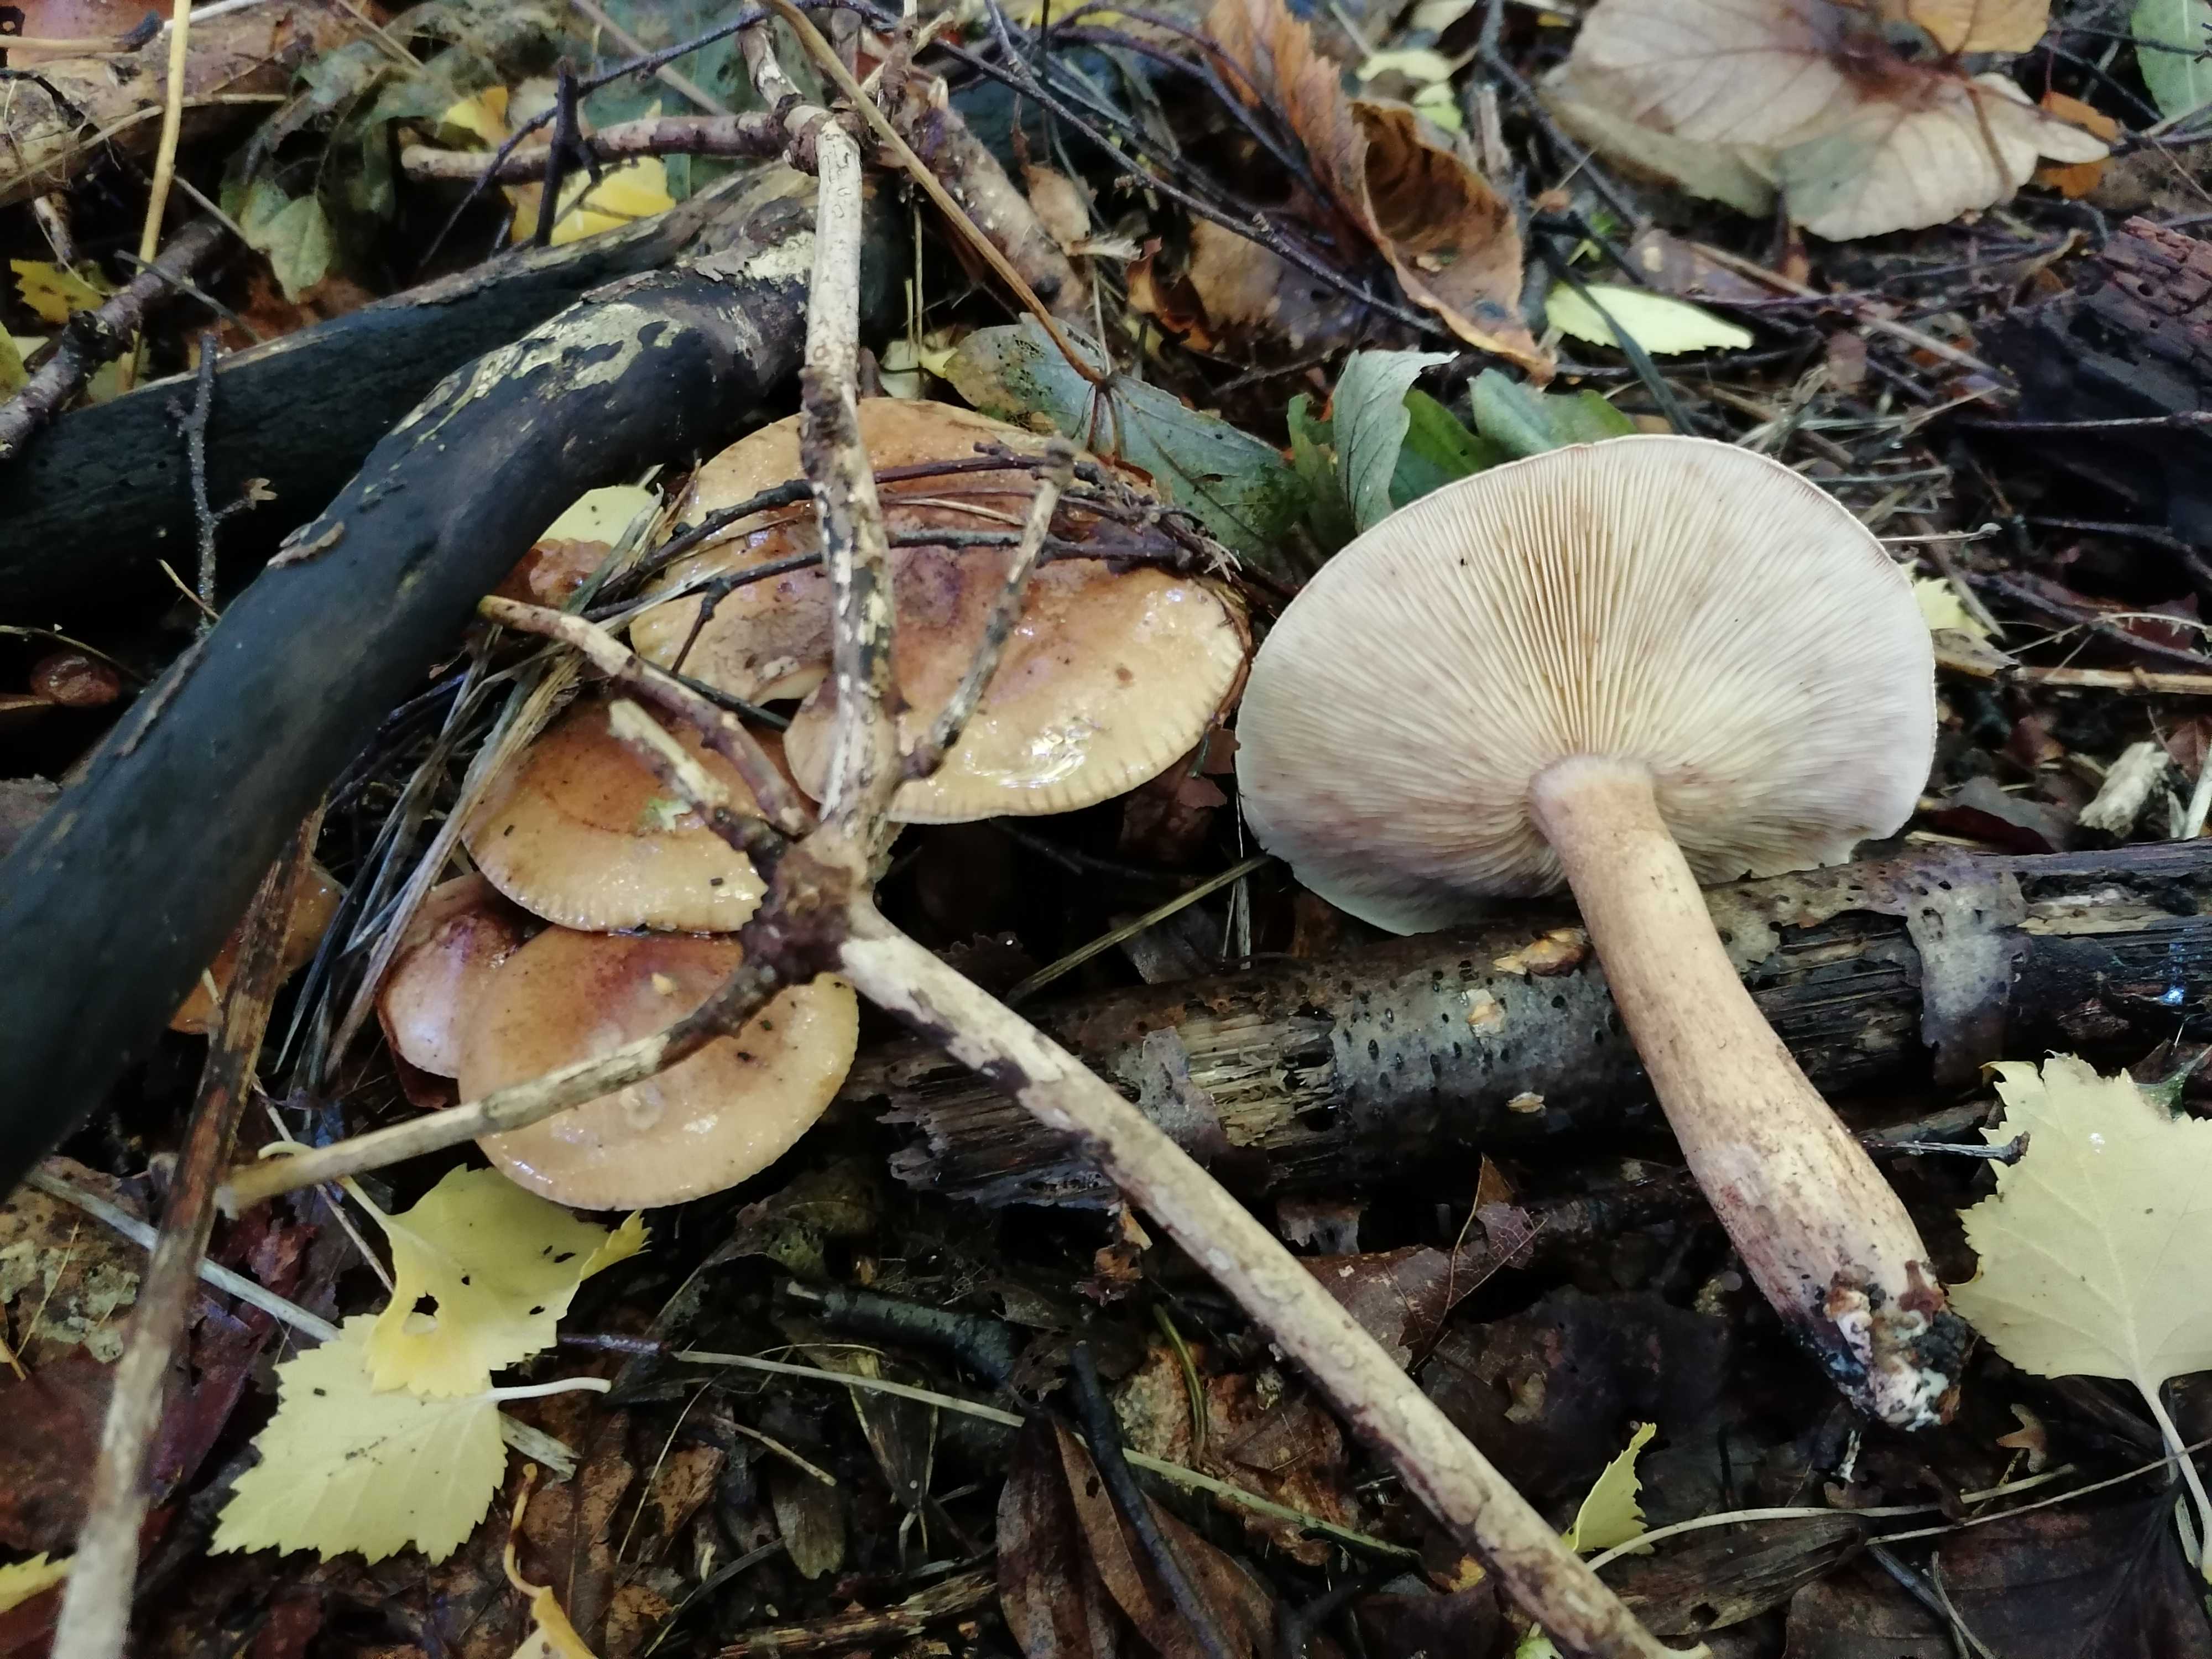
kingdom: Fungi
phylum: Basidiomycota
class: Agaricomycetes
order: Agaricales
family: Tricholomataceae
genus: Tricholoma
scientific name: Tricholoma fulvum
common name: birke-ridderhat
